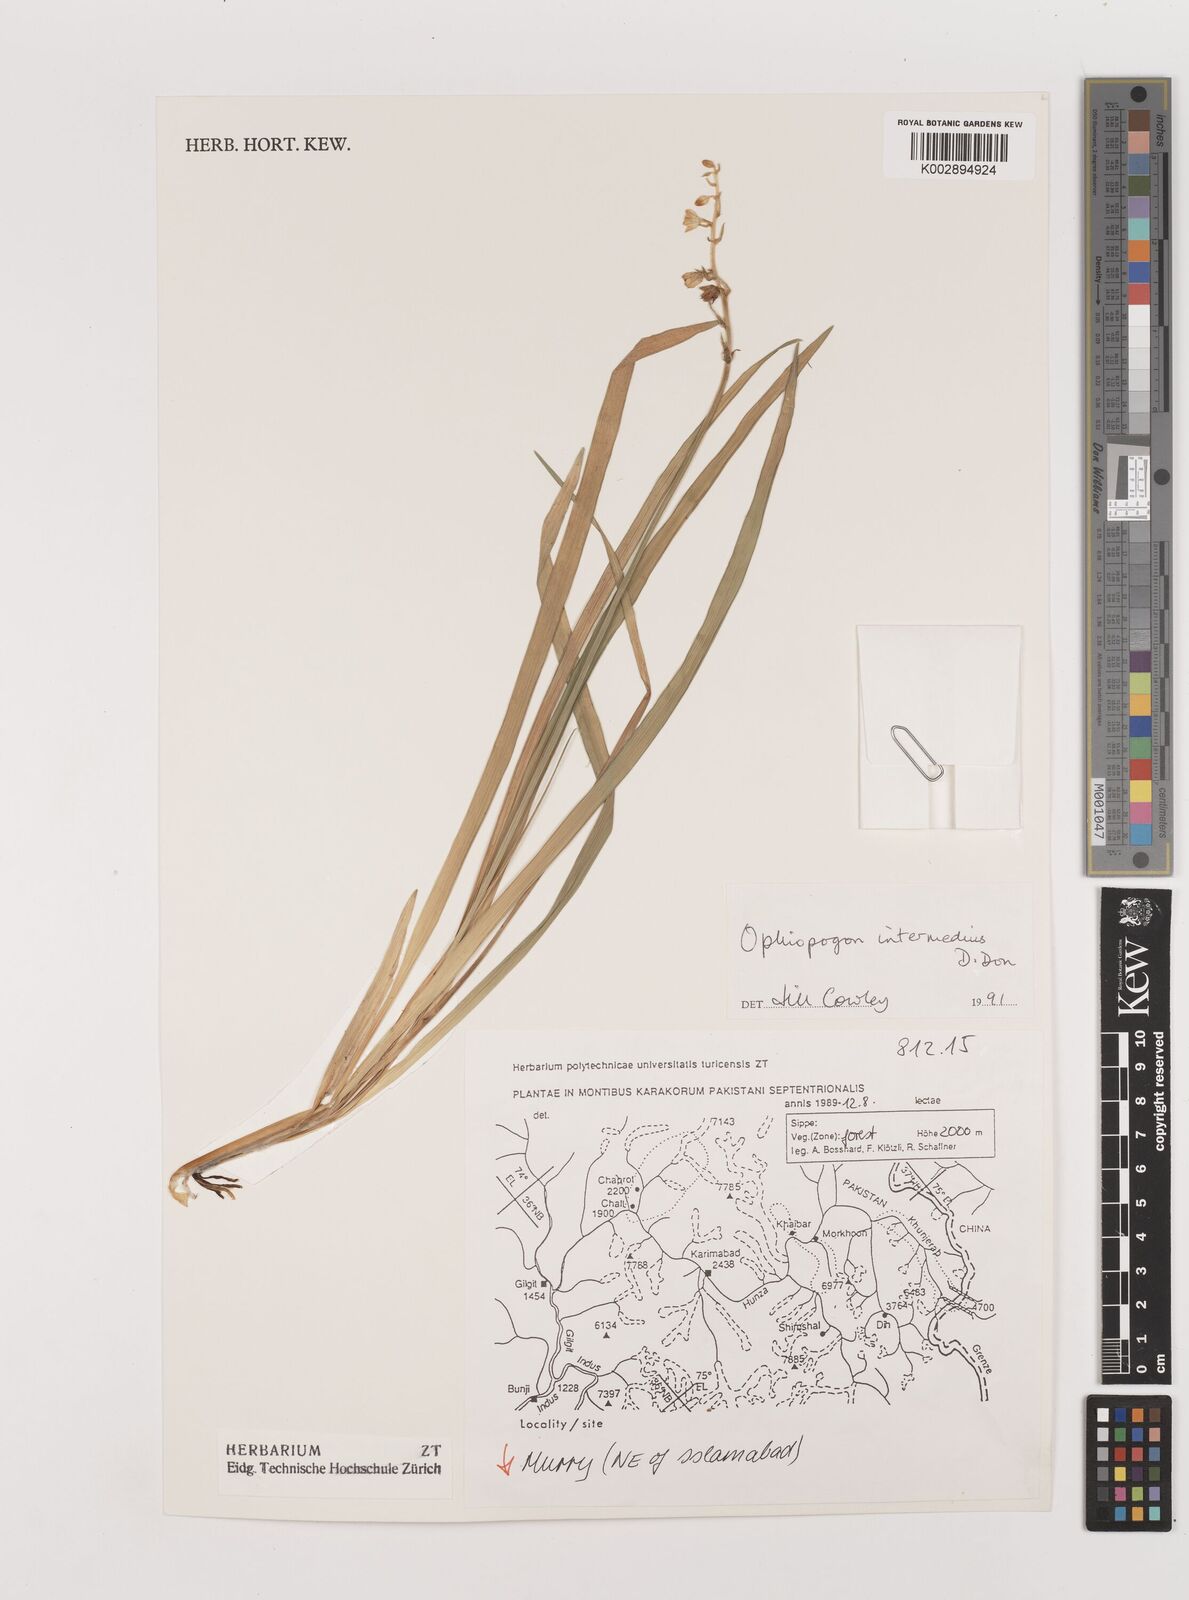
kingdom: Plantae
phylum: Tracheophyta
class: Liliopsida
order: Asparagales
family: Asparagaceae
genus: Ophiopogon
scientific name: Ophiopogon intermedius
